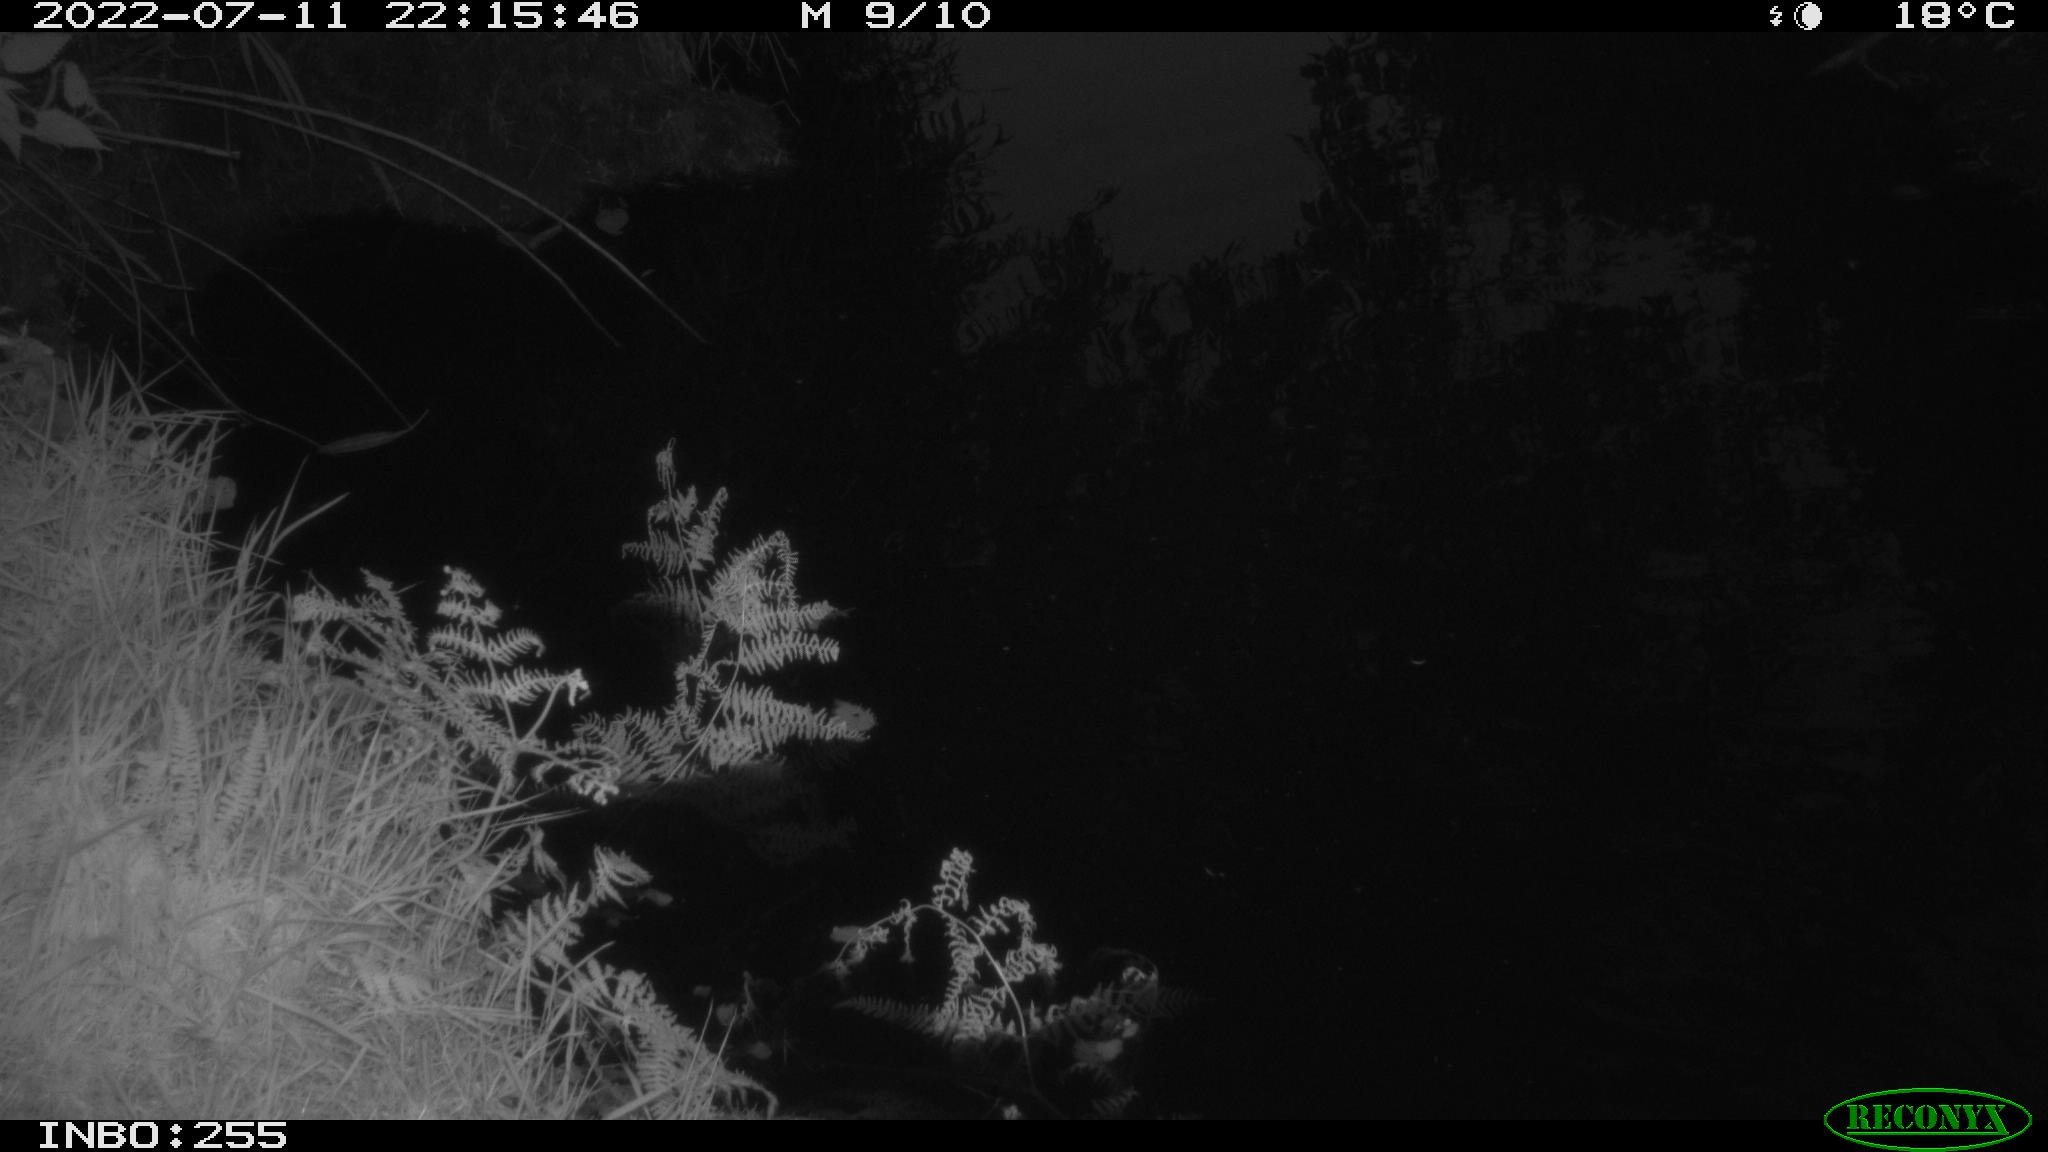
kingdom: Animalia
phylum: Chordata
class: Aves
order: Anseriformes
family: Anatidae
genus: Anas
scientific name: Anas platyrhynchos
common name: Mallard
